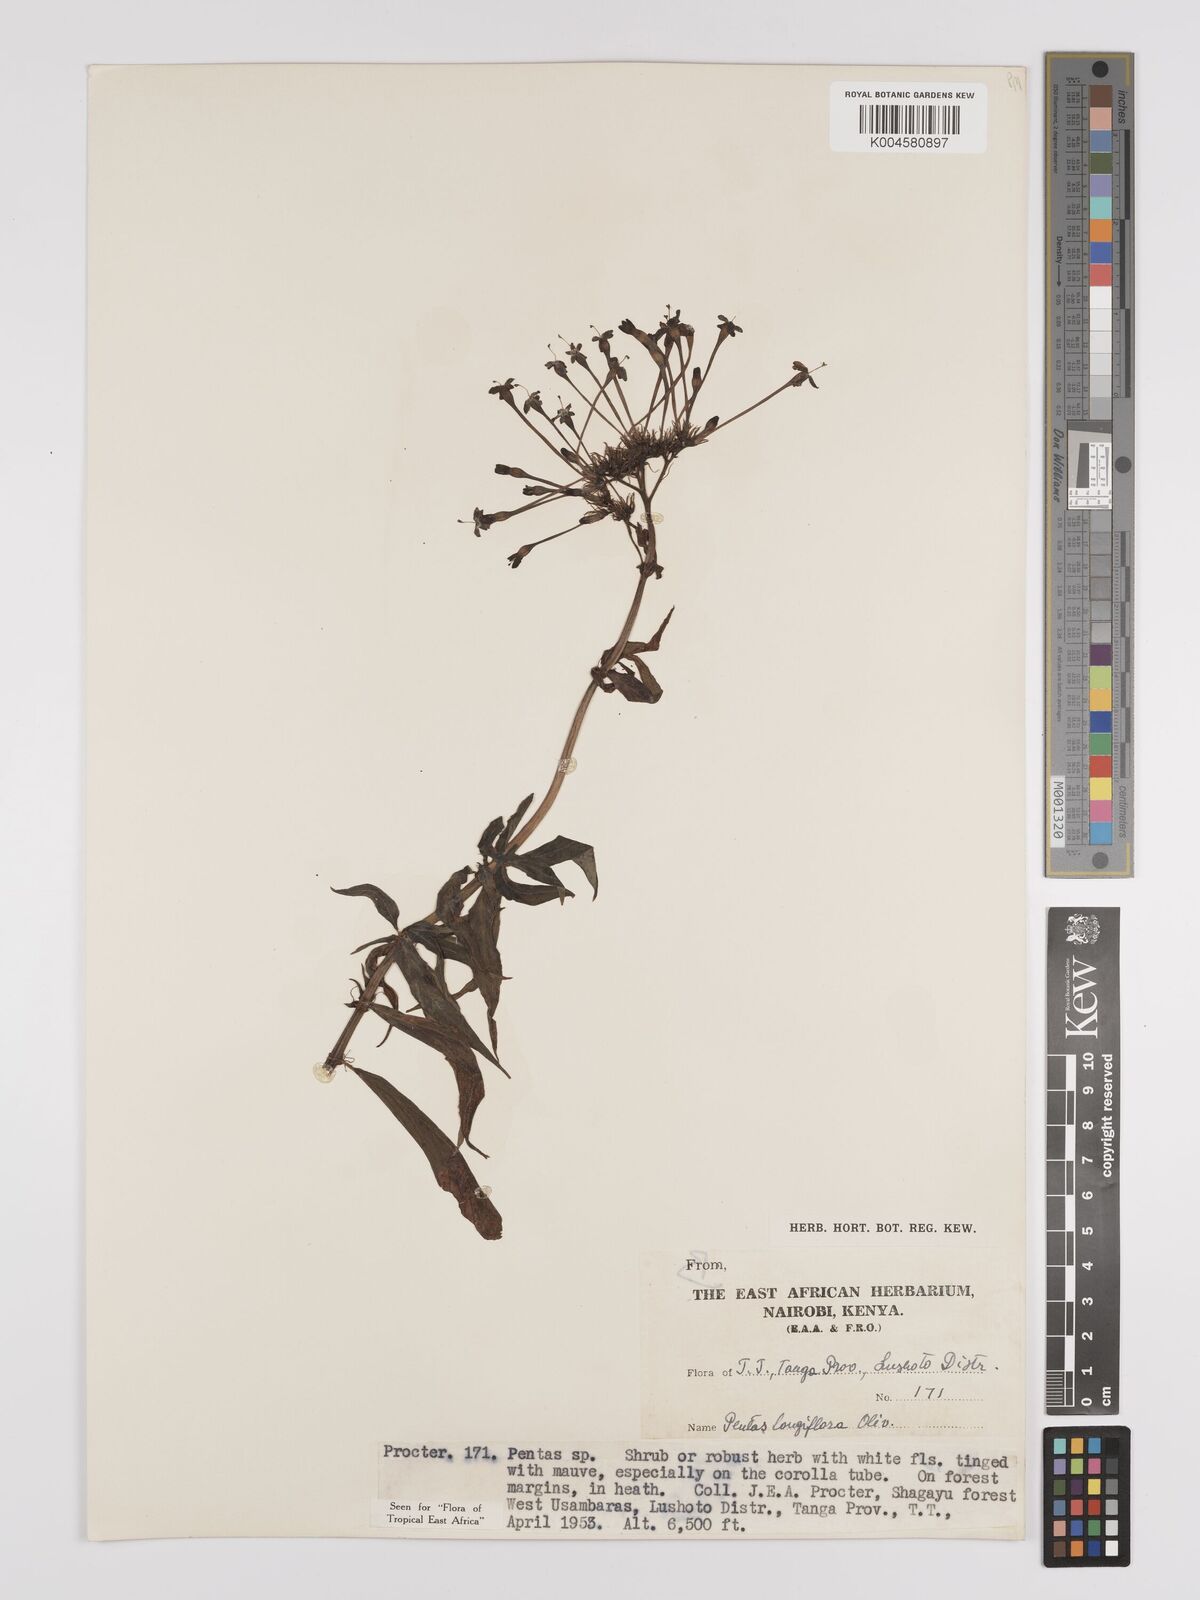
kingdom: Plantae
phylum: Tracheophyta
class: Magnoliopsida
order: Gentianales
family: Rubiaceae
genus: Dolichopentas
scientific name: Dolichopentas longiflora
